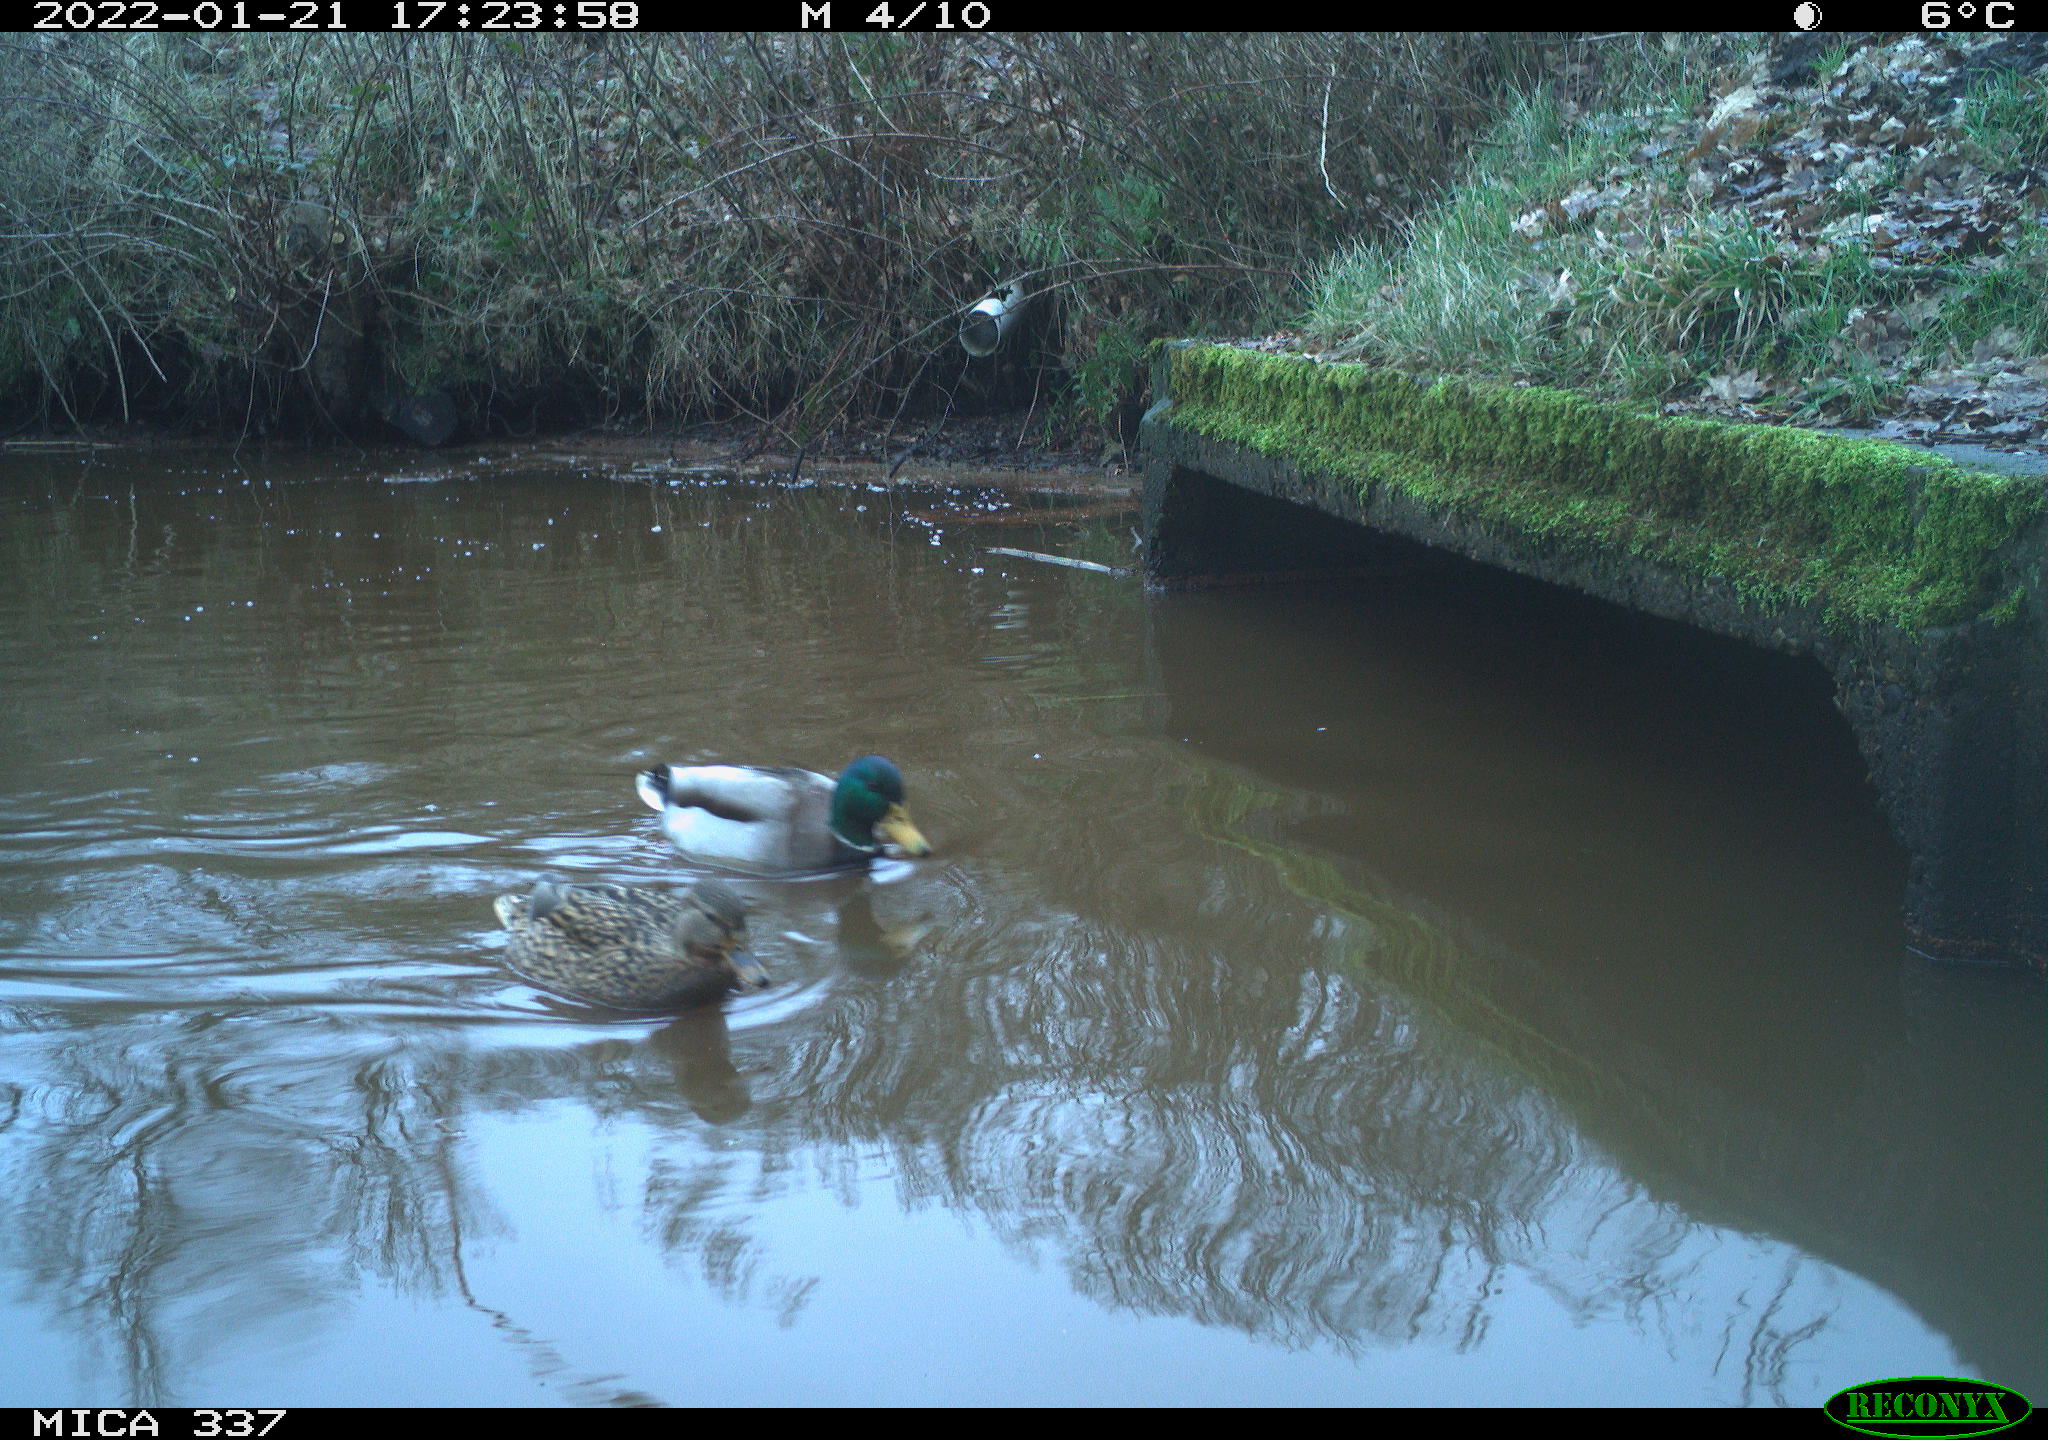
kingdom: Animalia
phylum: Chordata
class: Aves
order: Anseriformes
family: Anatidae
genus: Anas
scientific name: Anas platyrhynchos
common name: Mallard
